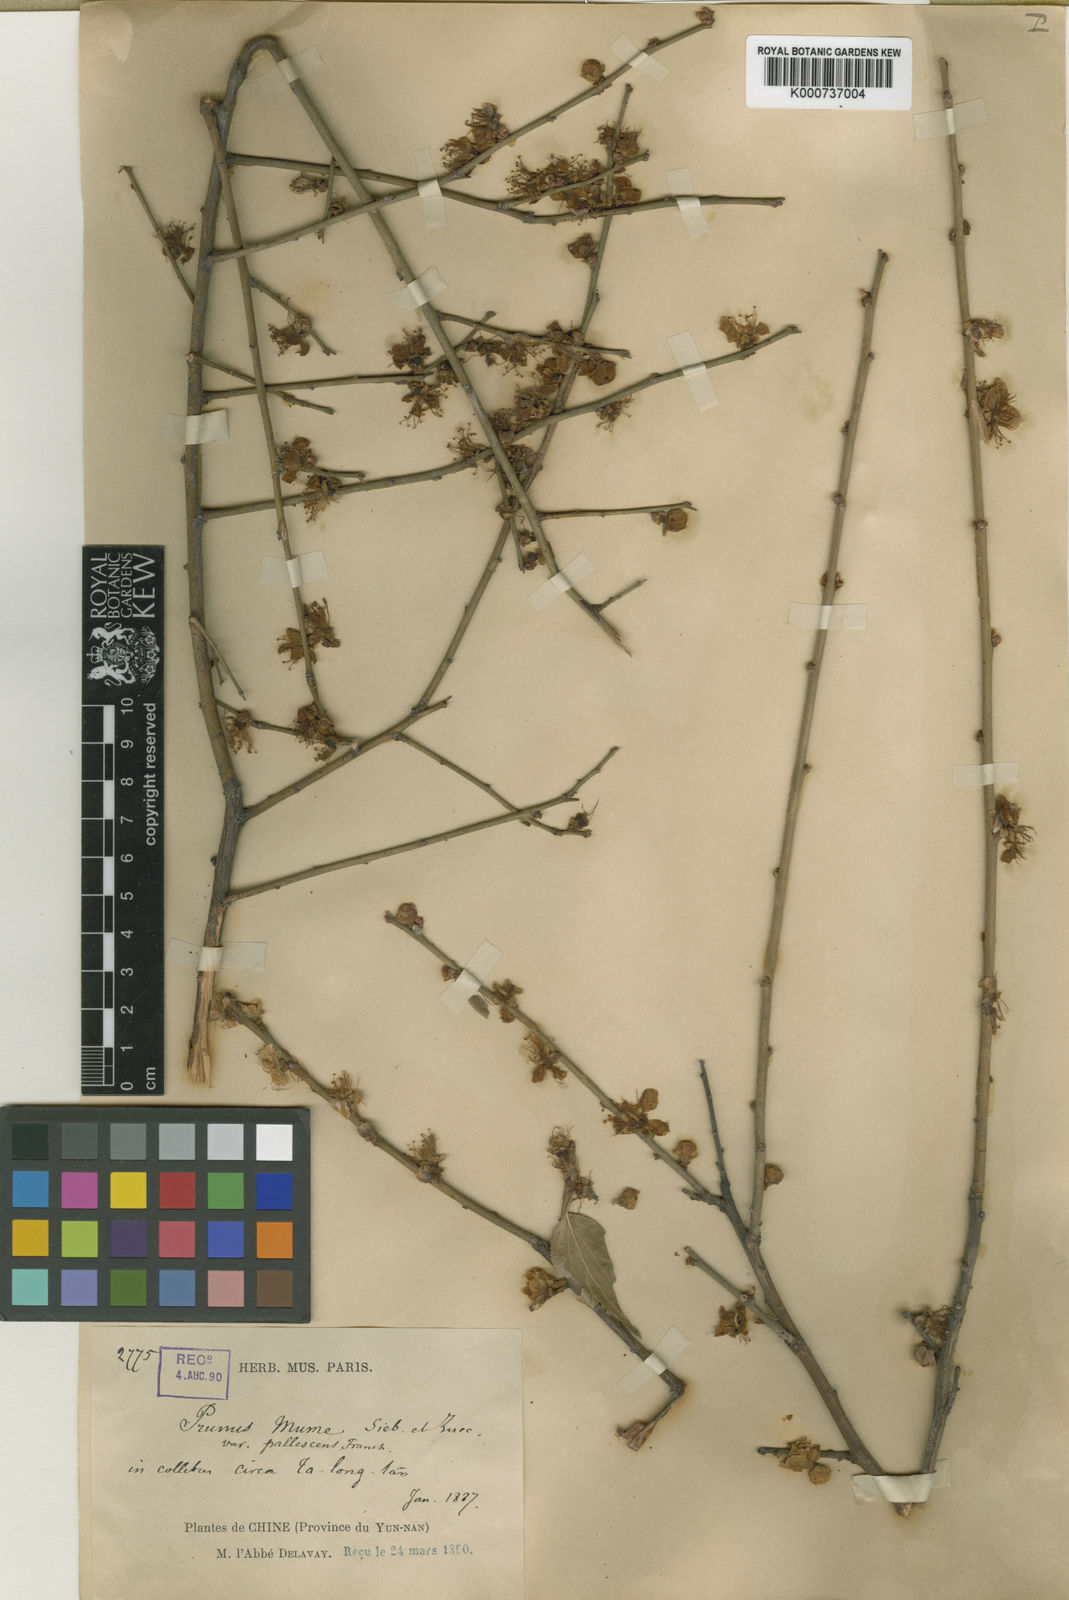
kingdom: Plantae
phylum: Tracheophyta
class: Magnoliopsida
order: Rosales
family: Rosaceae
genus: Prunus
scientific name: Prunus mume
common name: Japanese apricot
